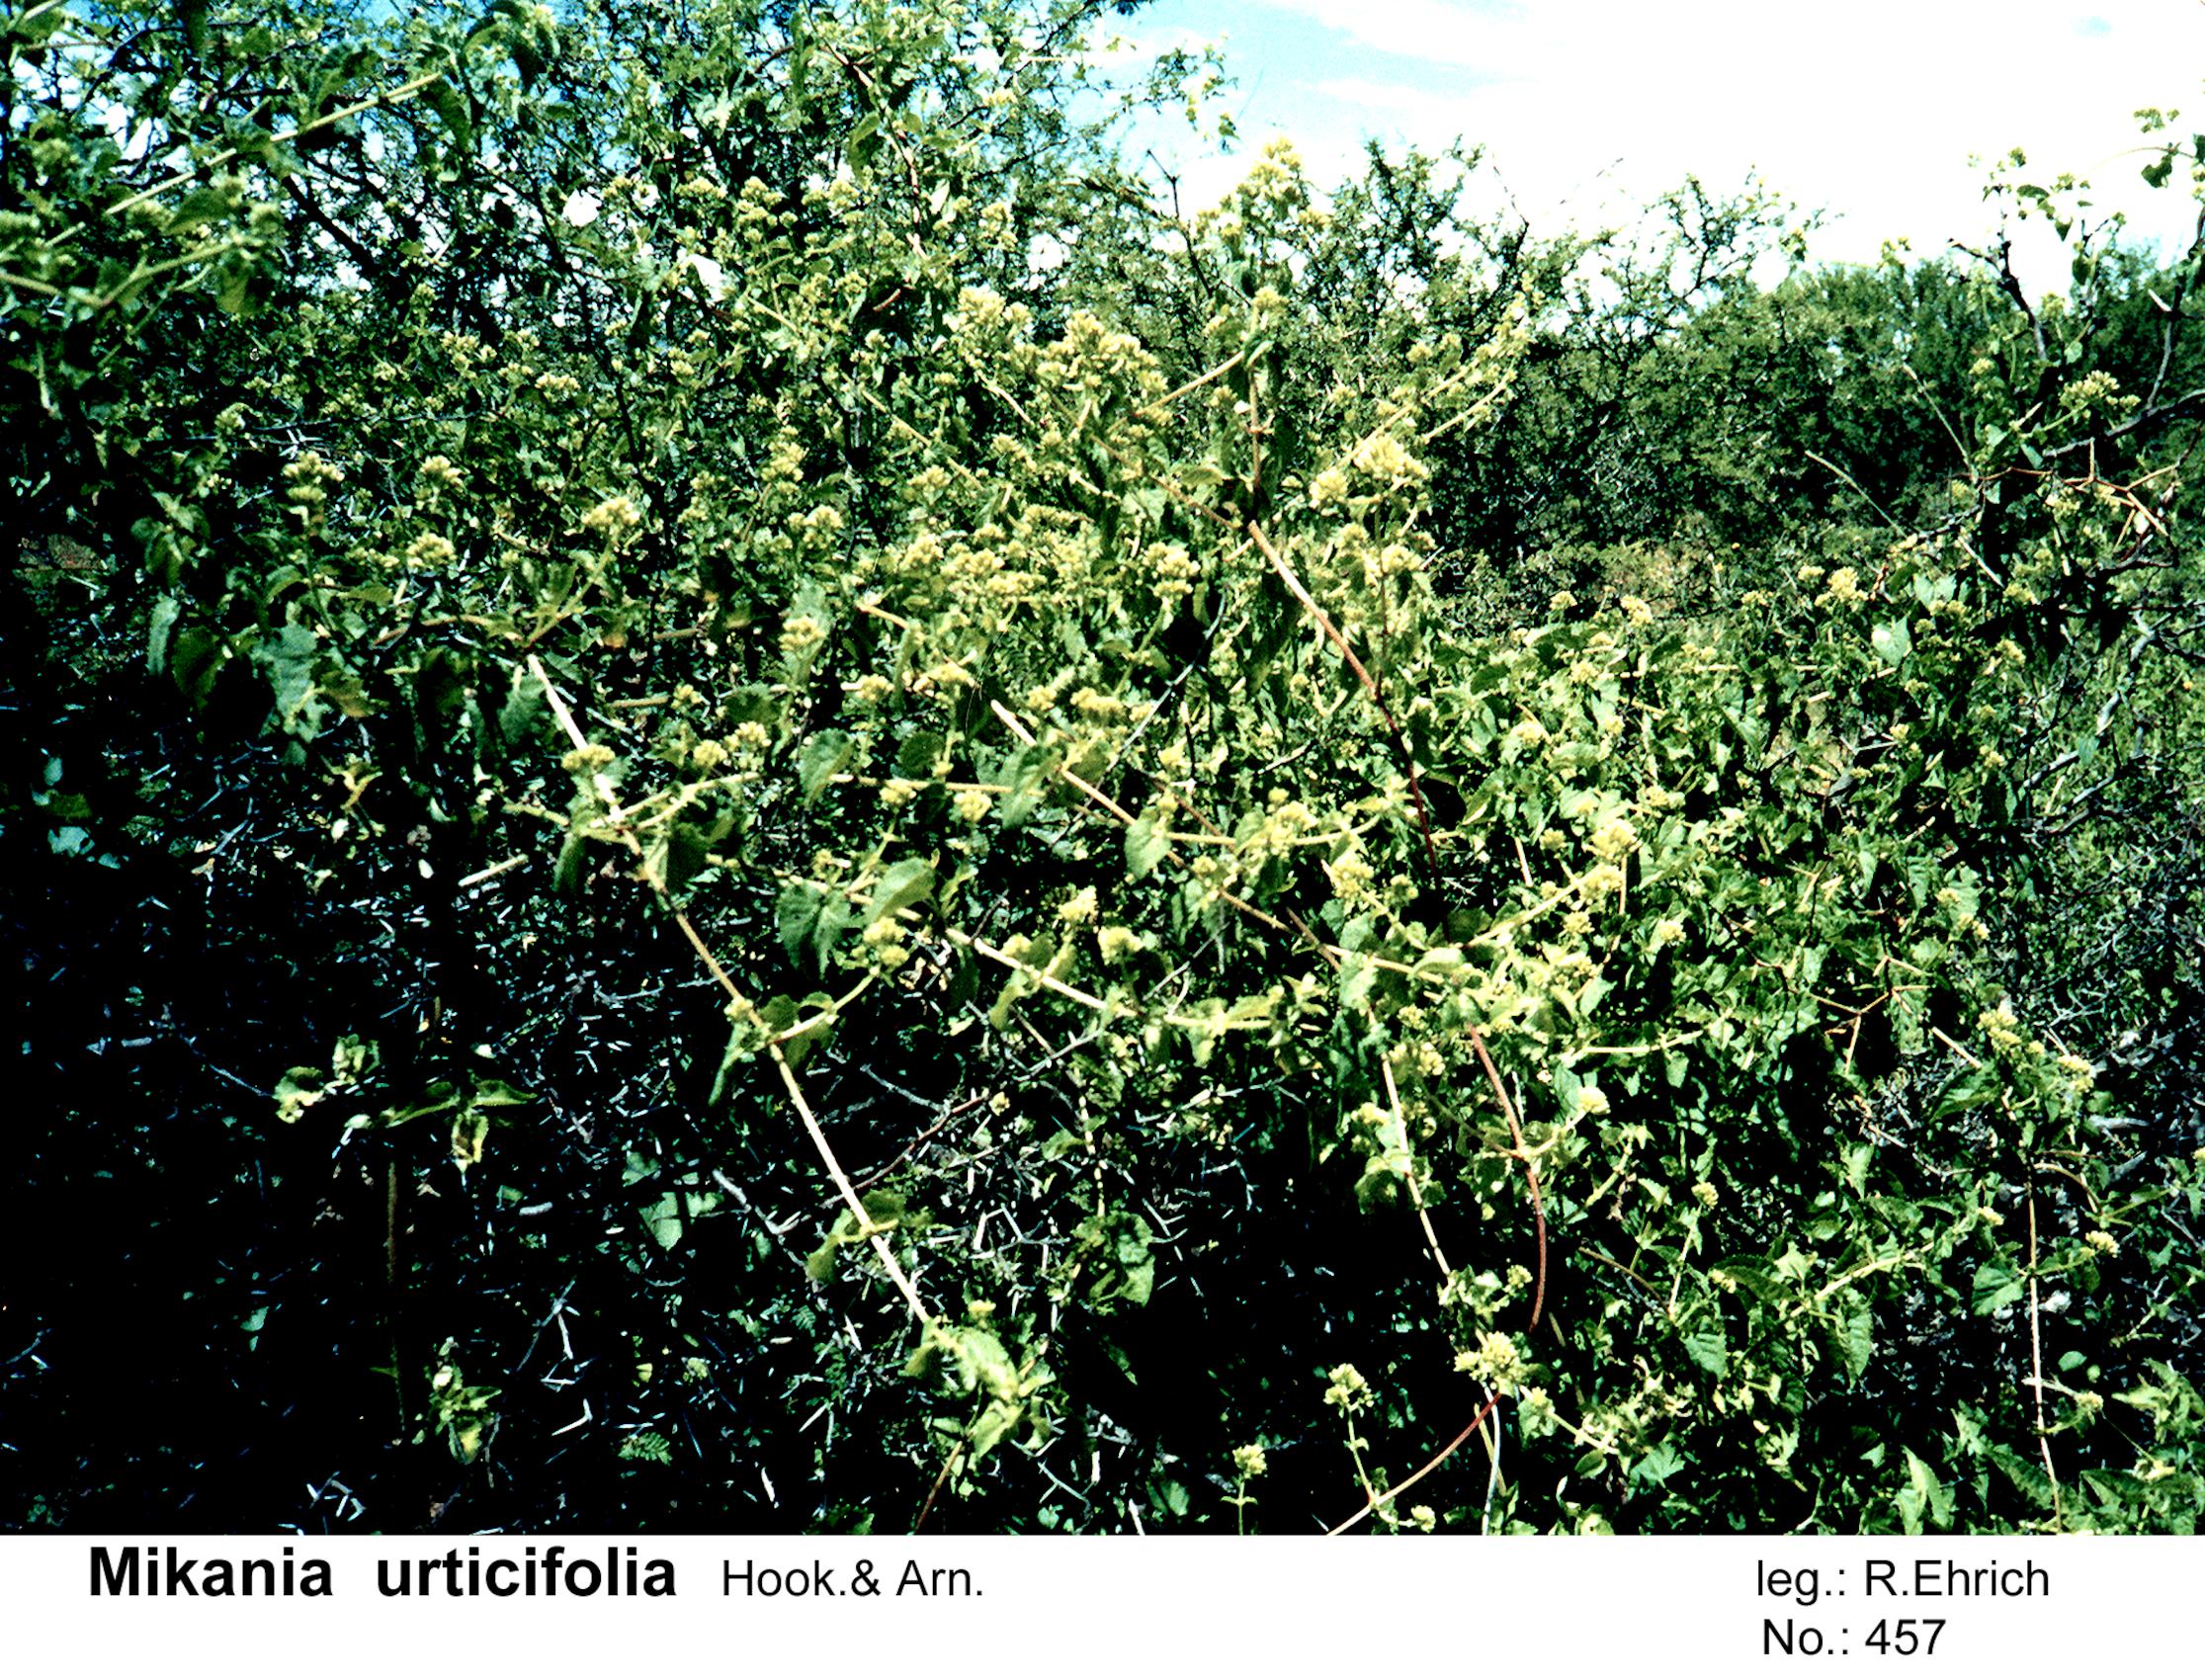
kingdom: Plantae
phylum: Tracheophyta
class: Magnoliopsida
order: Asterales
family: Asteraceae
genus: Mikania
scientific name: Mikania urticifolia
